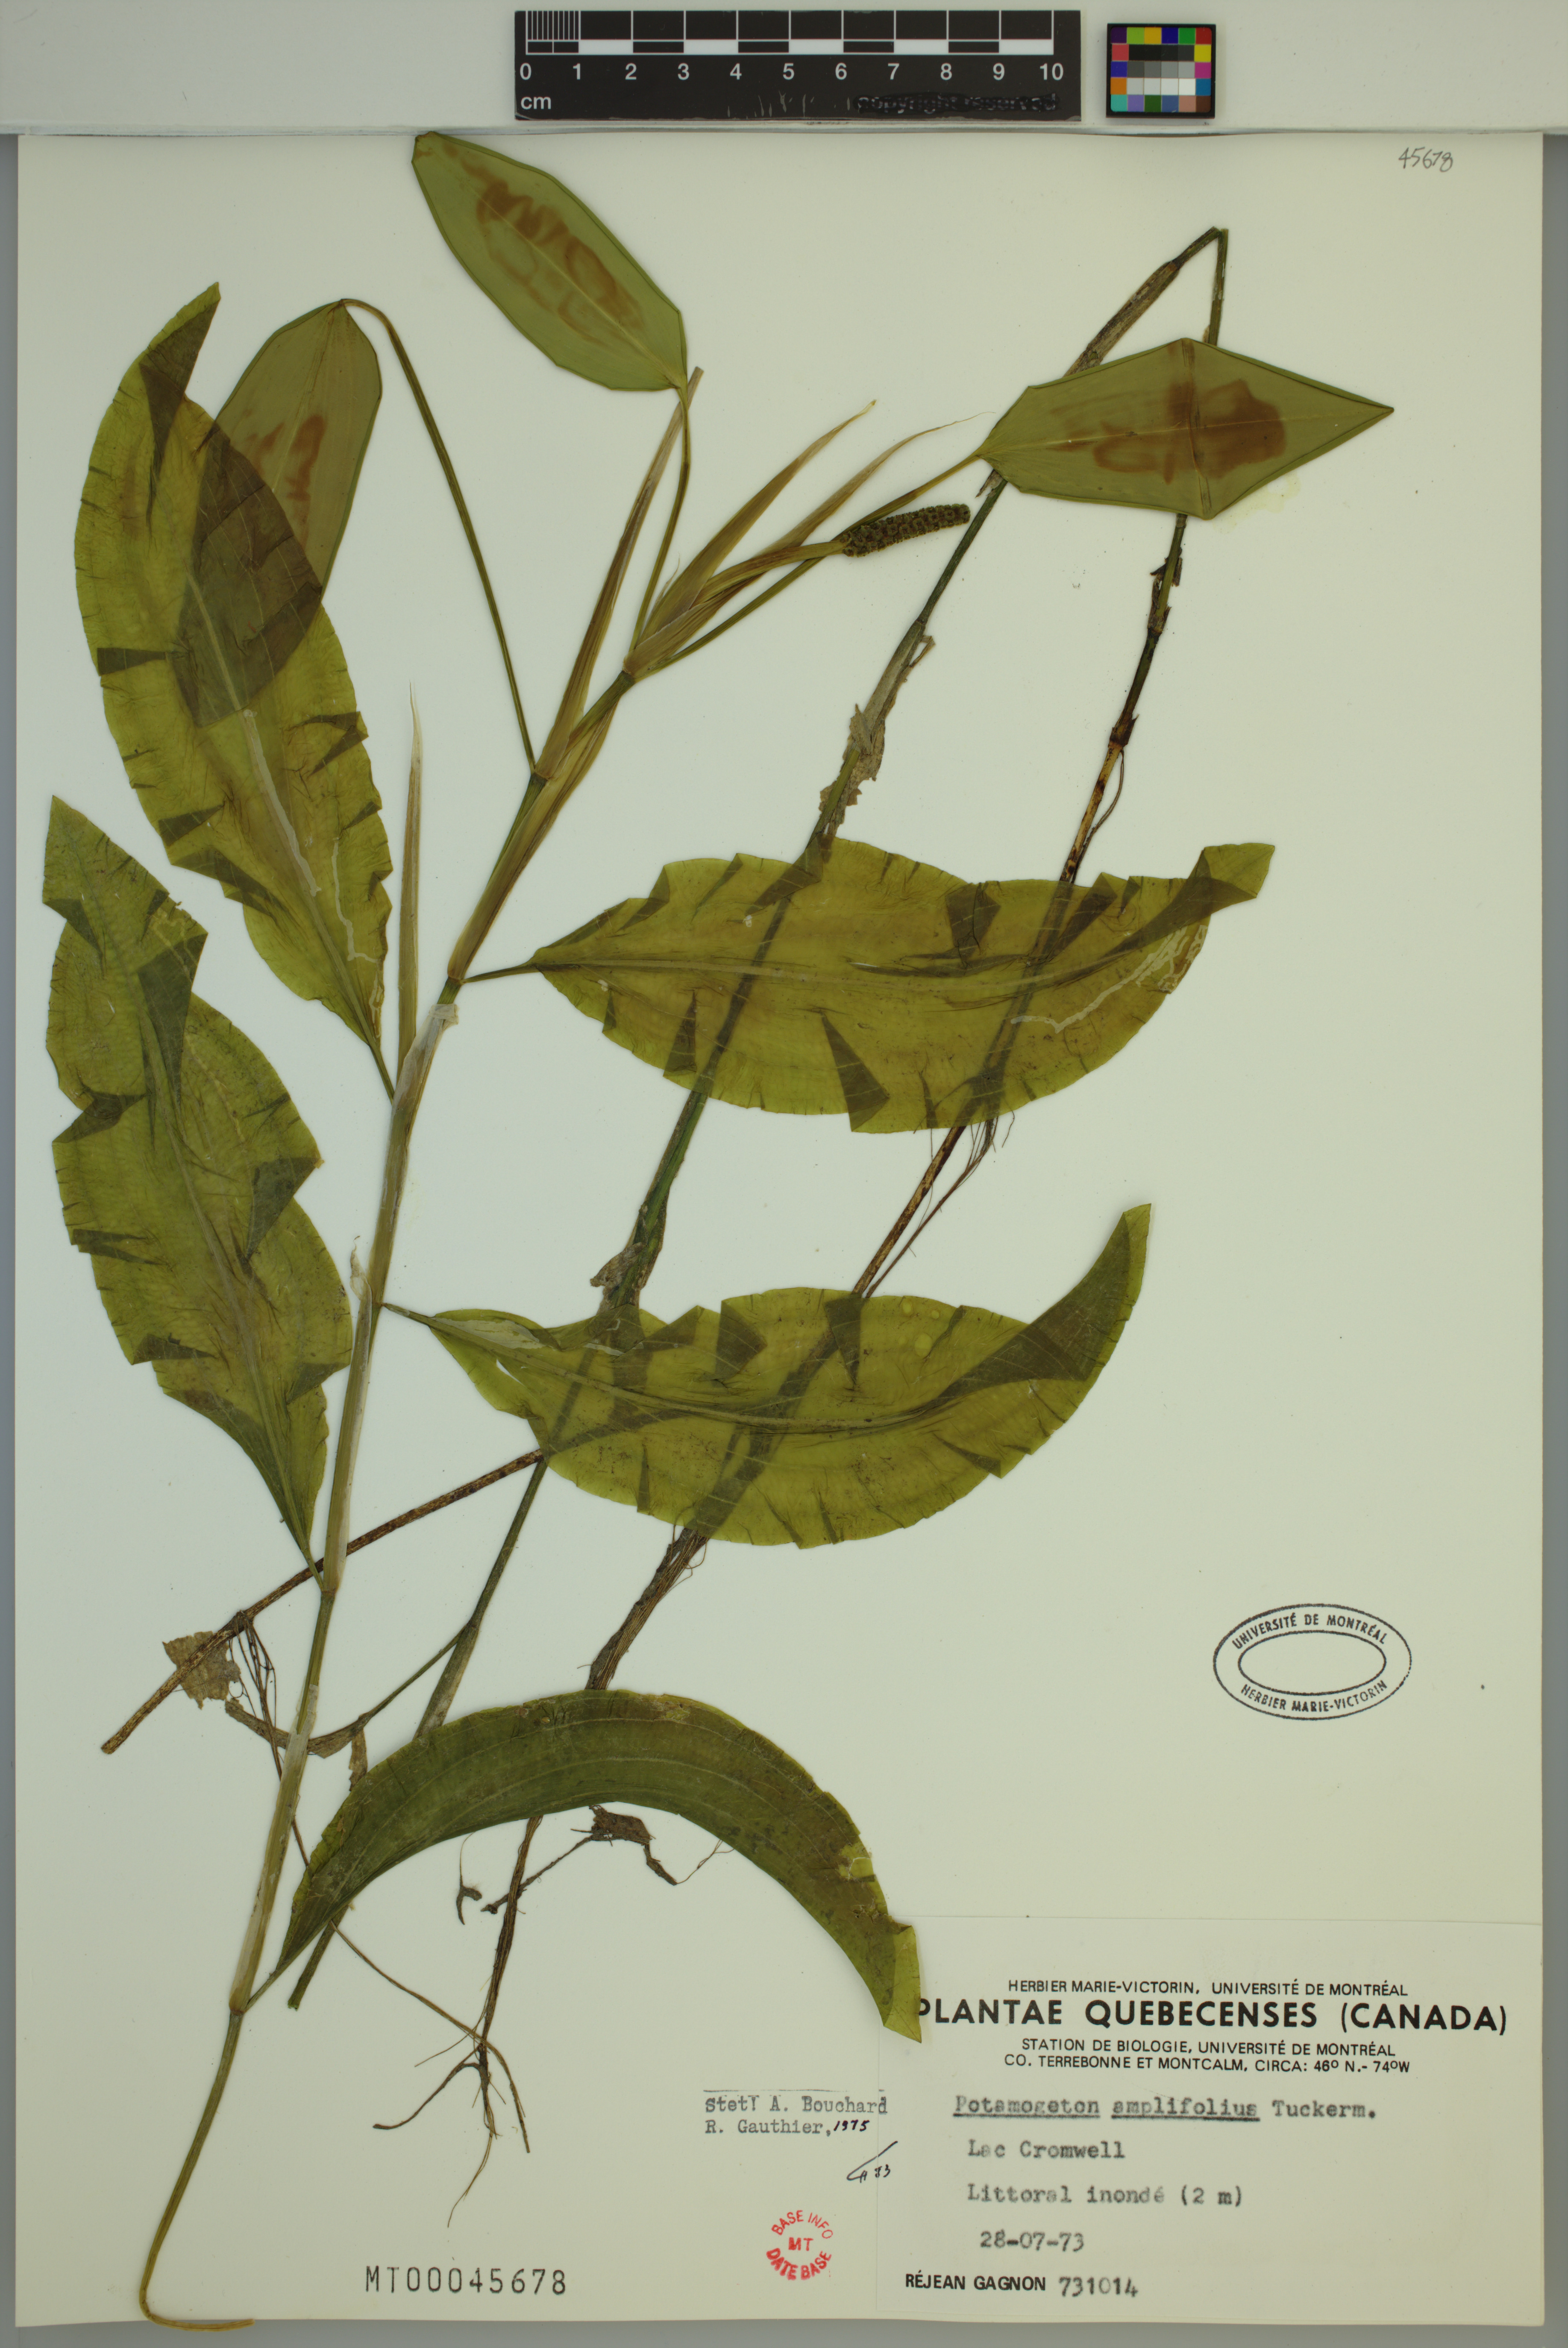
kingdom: Plantae
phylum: Tracheophyta
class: Liliopsida
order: Alismatales
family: Potamogetonaceae
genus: Potamogeton
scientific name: Potamogeton amplifolius
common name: Broad-leaved pondweed
